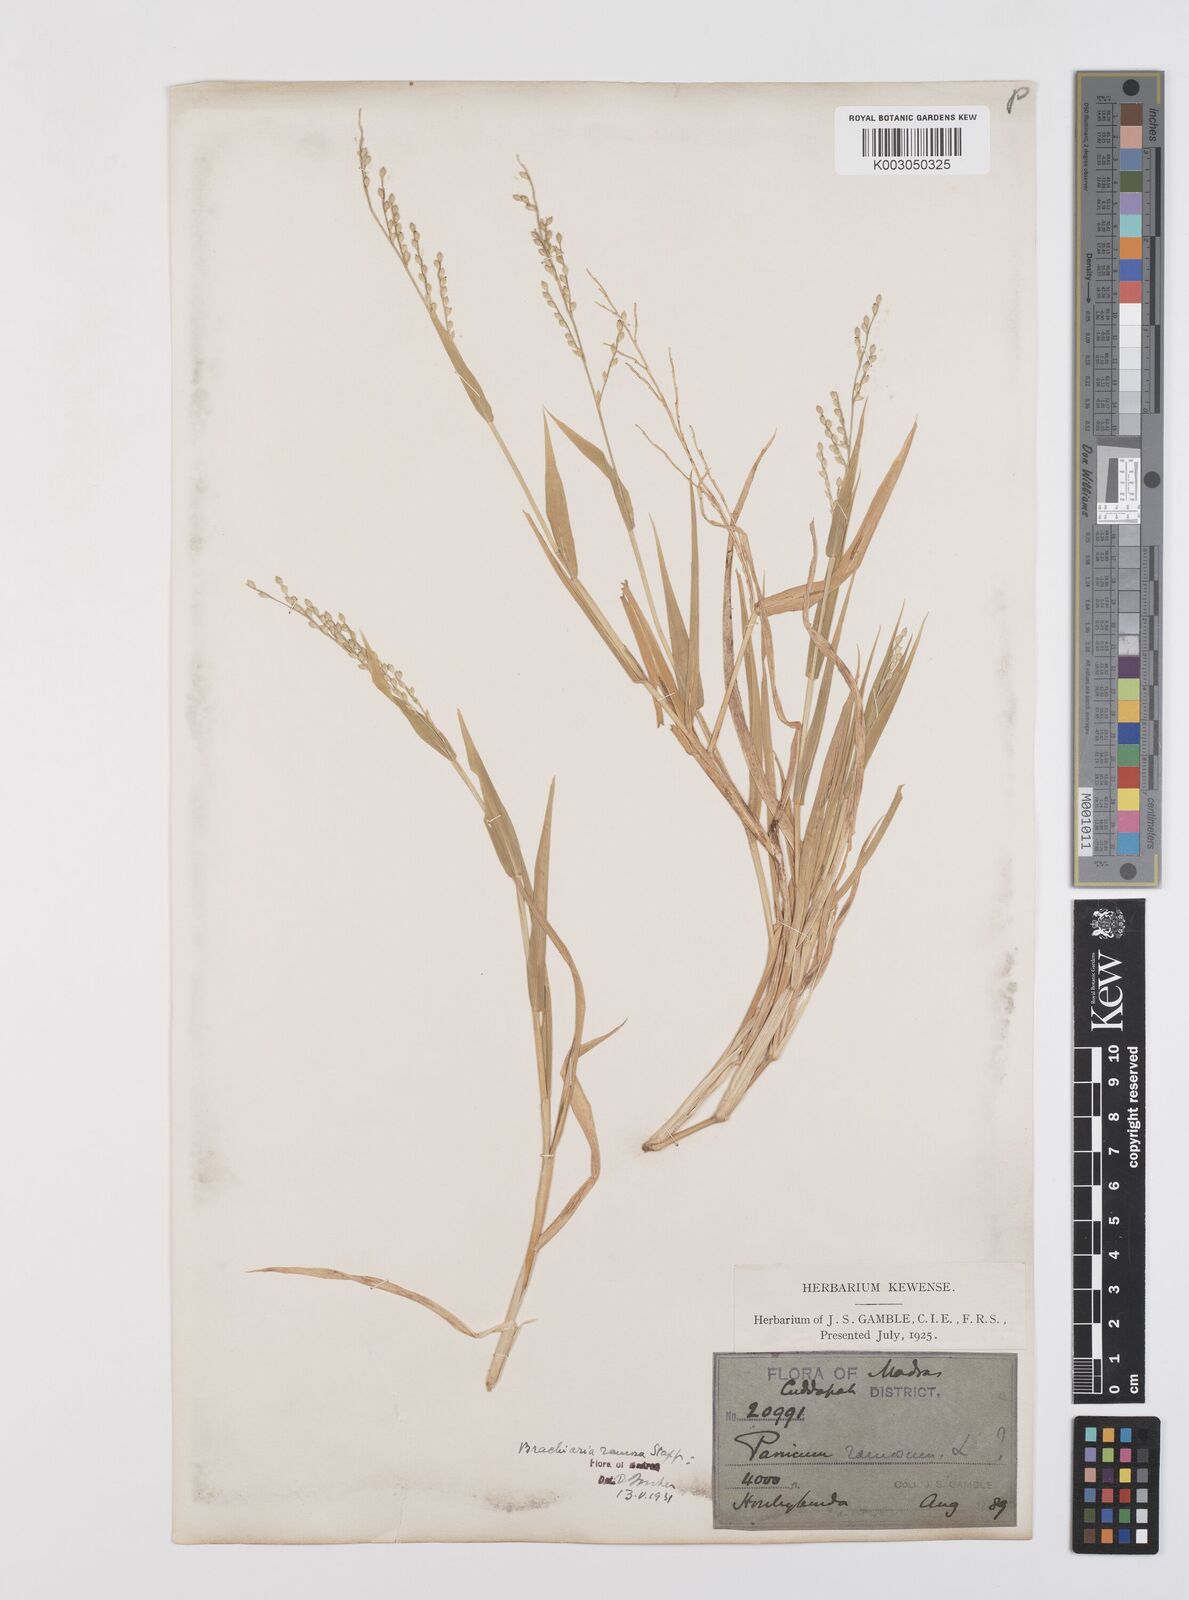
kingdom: Plantae
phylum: Tracheophyta
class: Liliopsida
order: Poales
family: Poaceae
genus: Urochloa
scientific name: Urochloa ramosa
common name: Browntop millet
